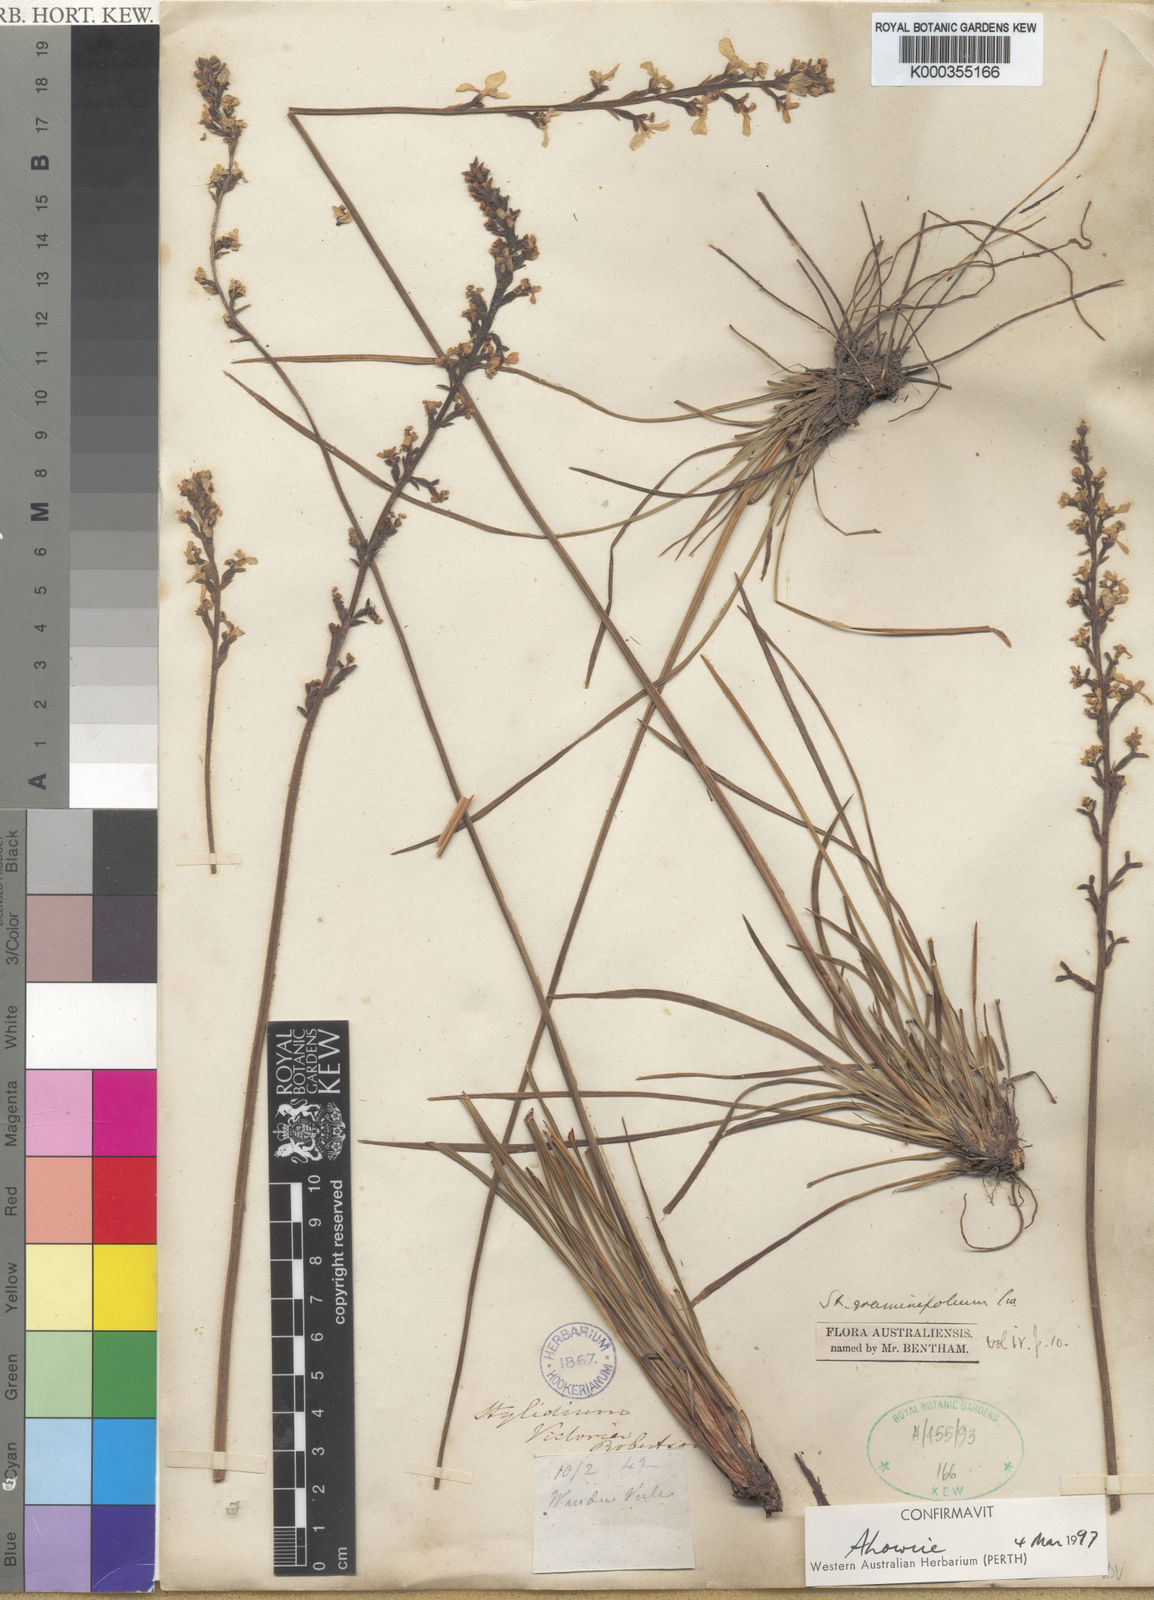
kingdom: Plantae
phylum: Tracheophyta
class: Magnoliopsida
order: Asterales
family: Stylidiaceae
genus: Stylidium
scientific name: Stylidium graminifolium
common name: Grass triggerplant
